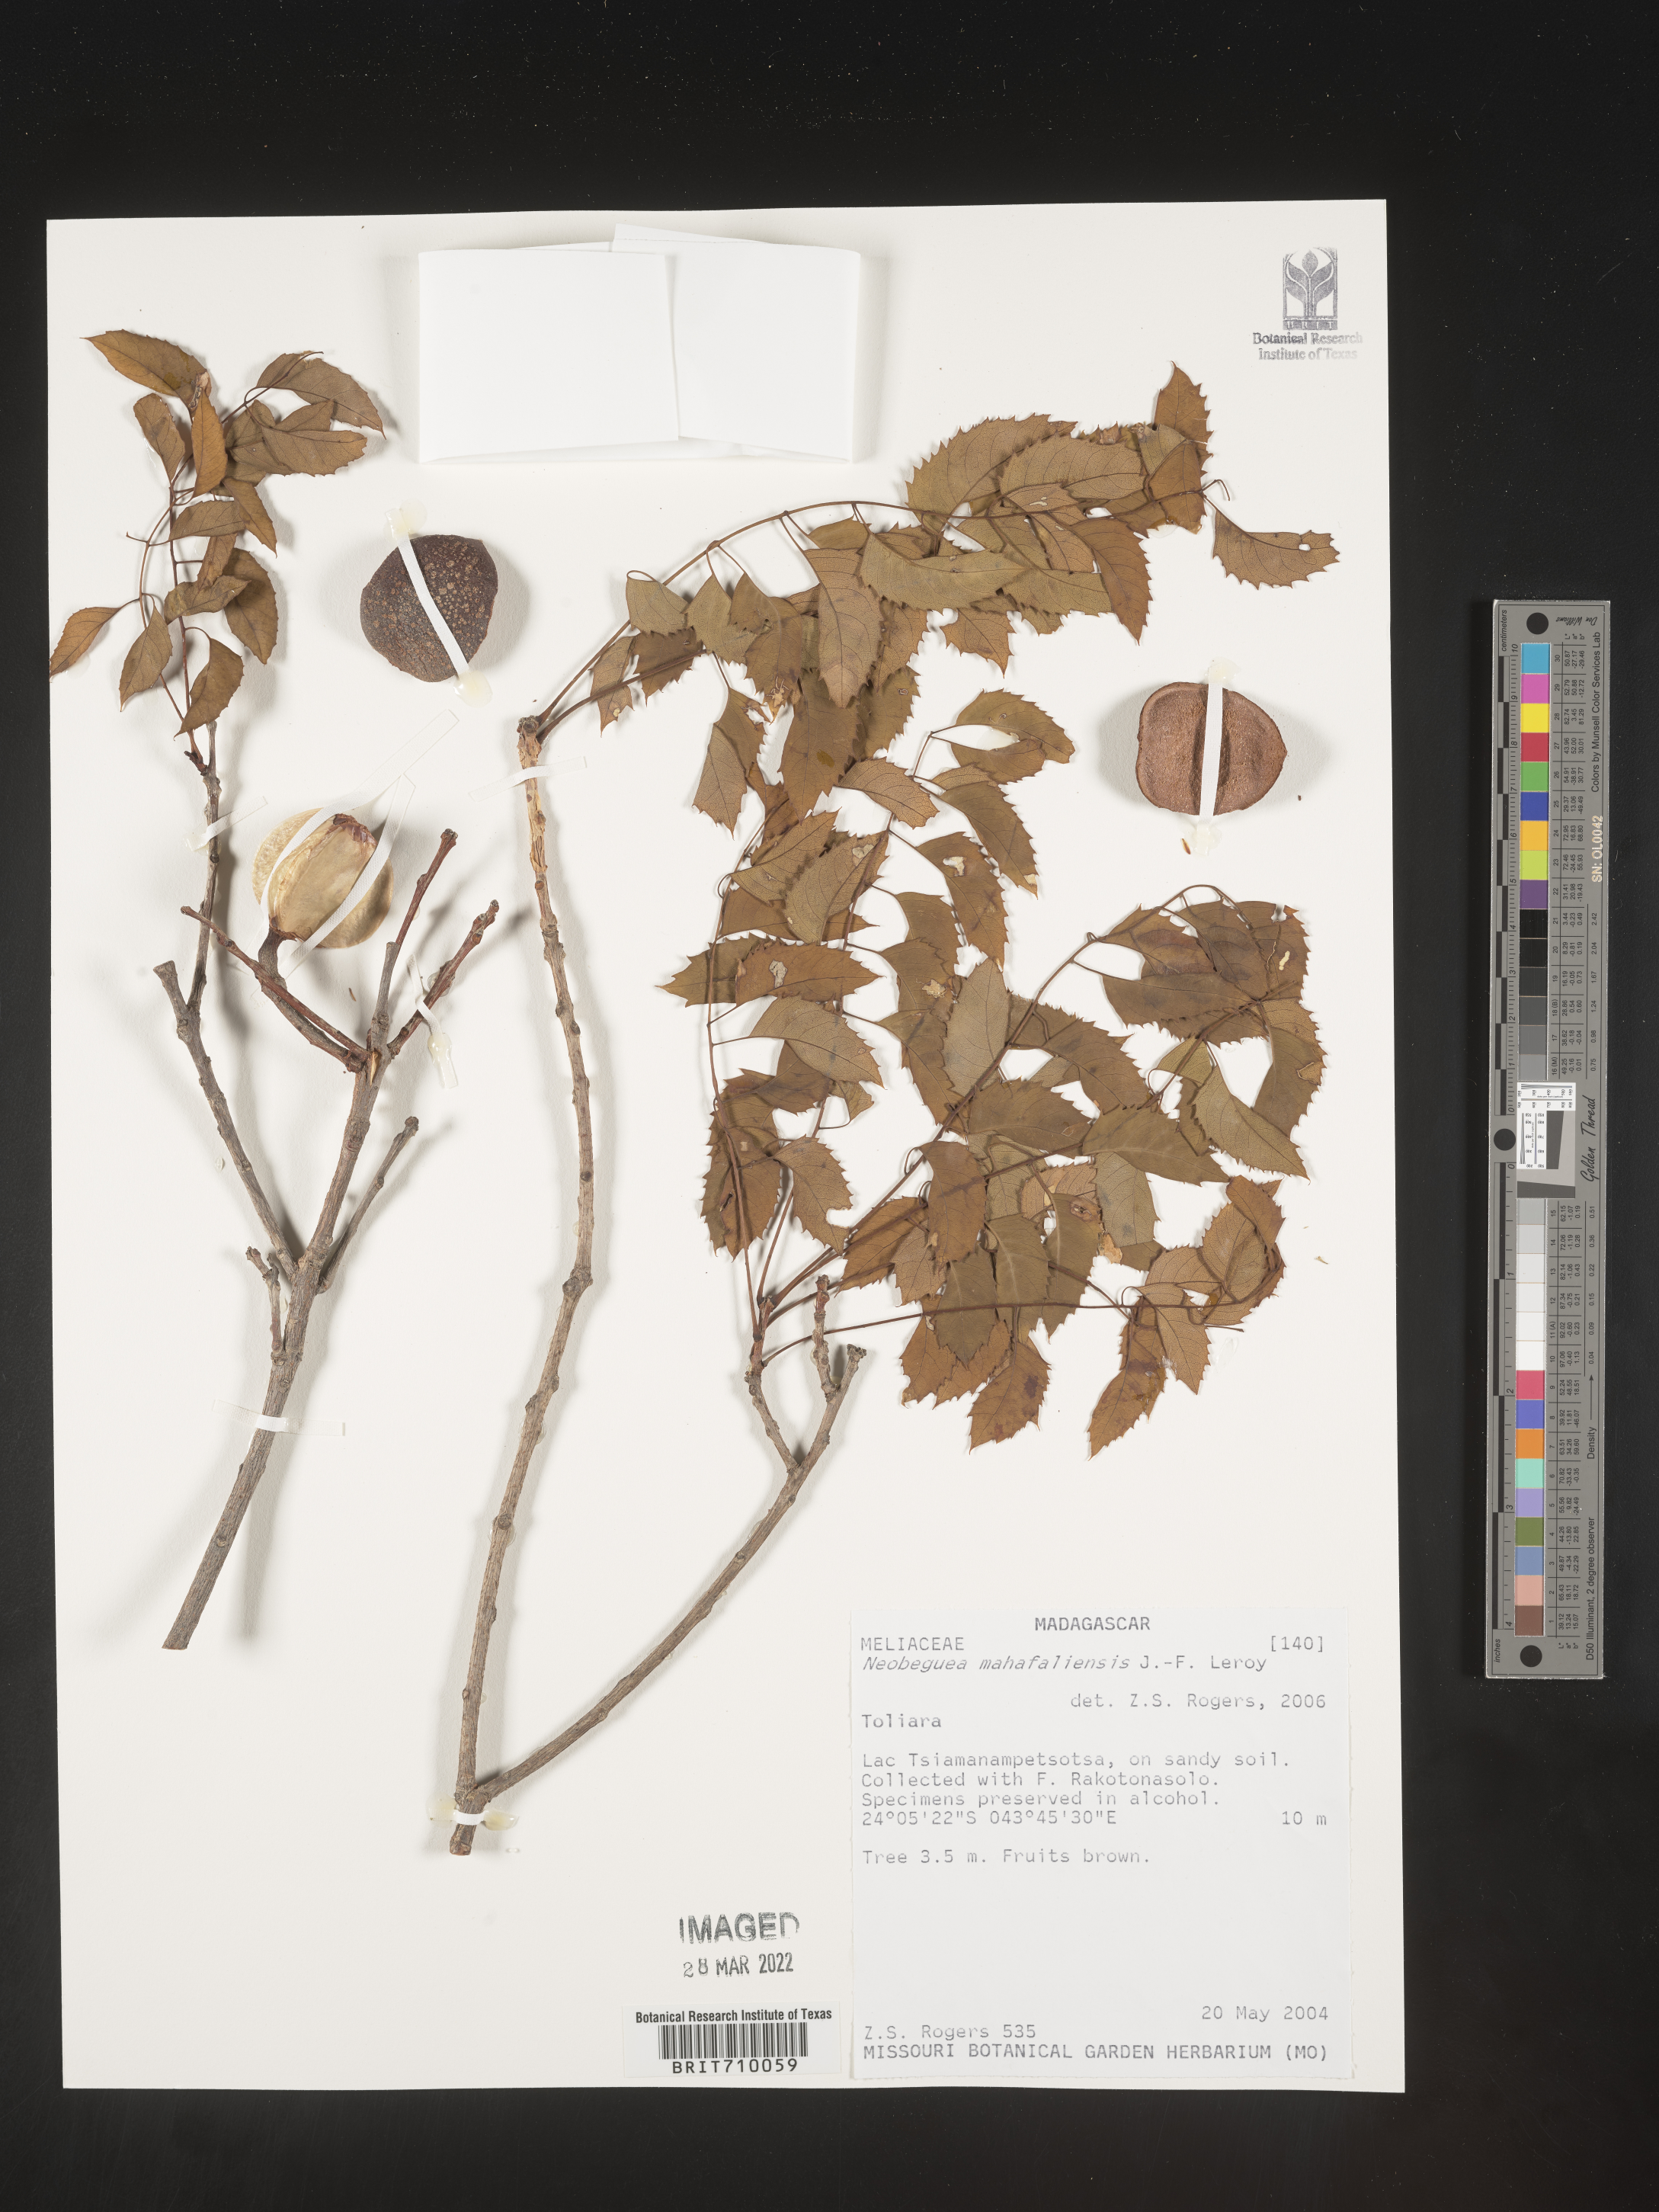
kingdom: Plantae
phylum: Tracheophyta
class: Magnoliopsida
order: Sapindales
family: Meliaceae
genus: Neobeguea
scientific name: Neobeguea mahafaliensis
